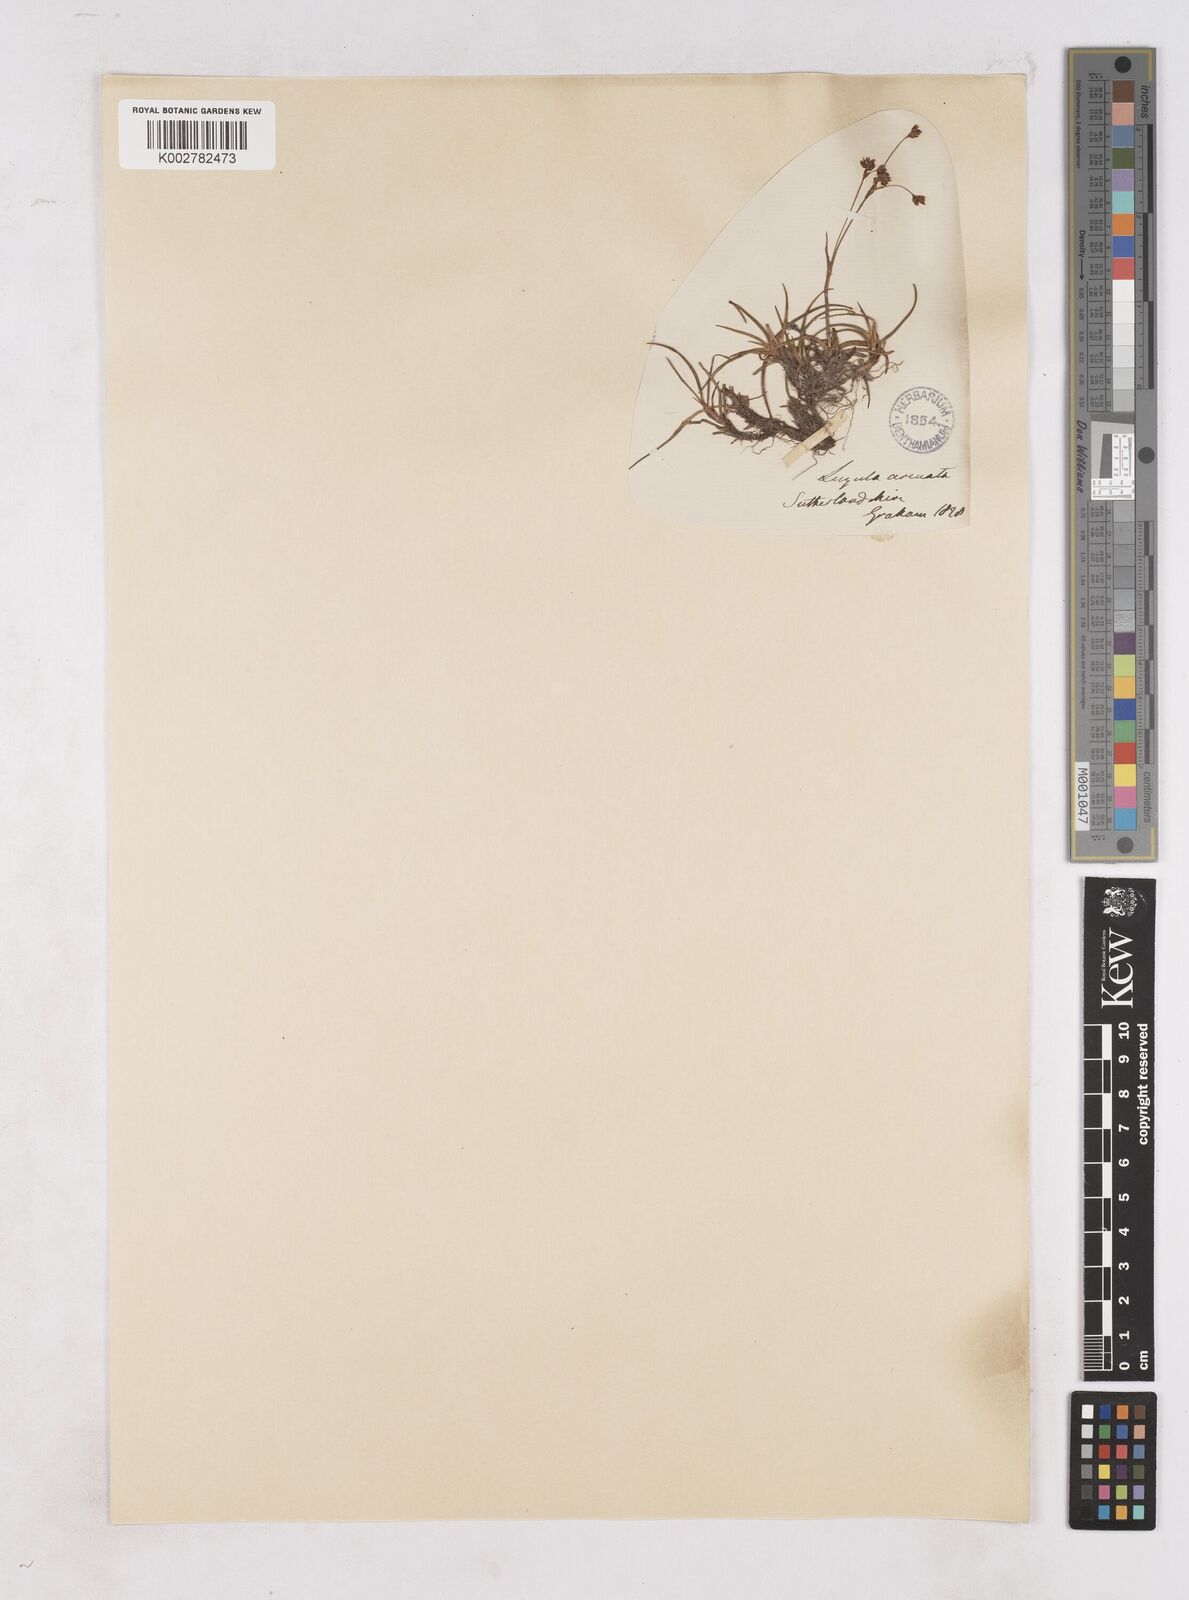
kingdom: Plantae
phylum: Tracheophyta
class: Liliopsida
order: Poales
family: Juncaceae
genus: Luzula
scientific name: Luzula arcuata
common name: Curved wood-rush
